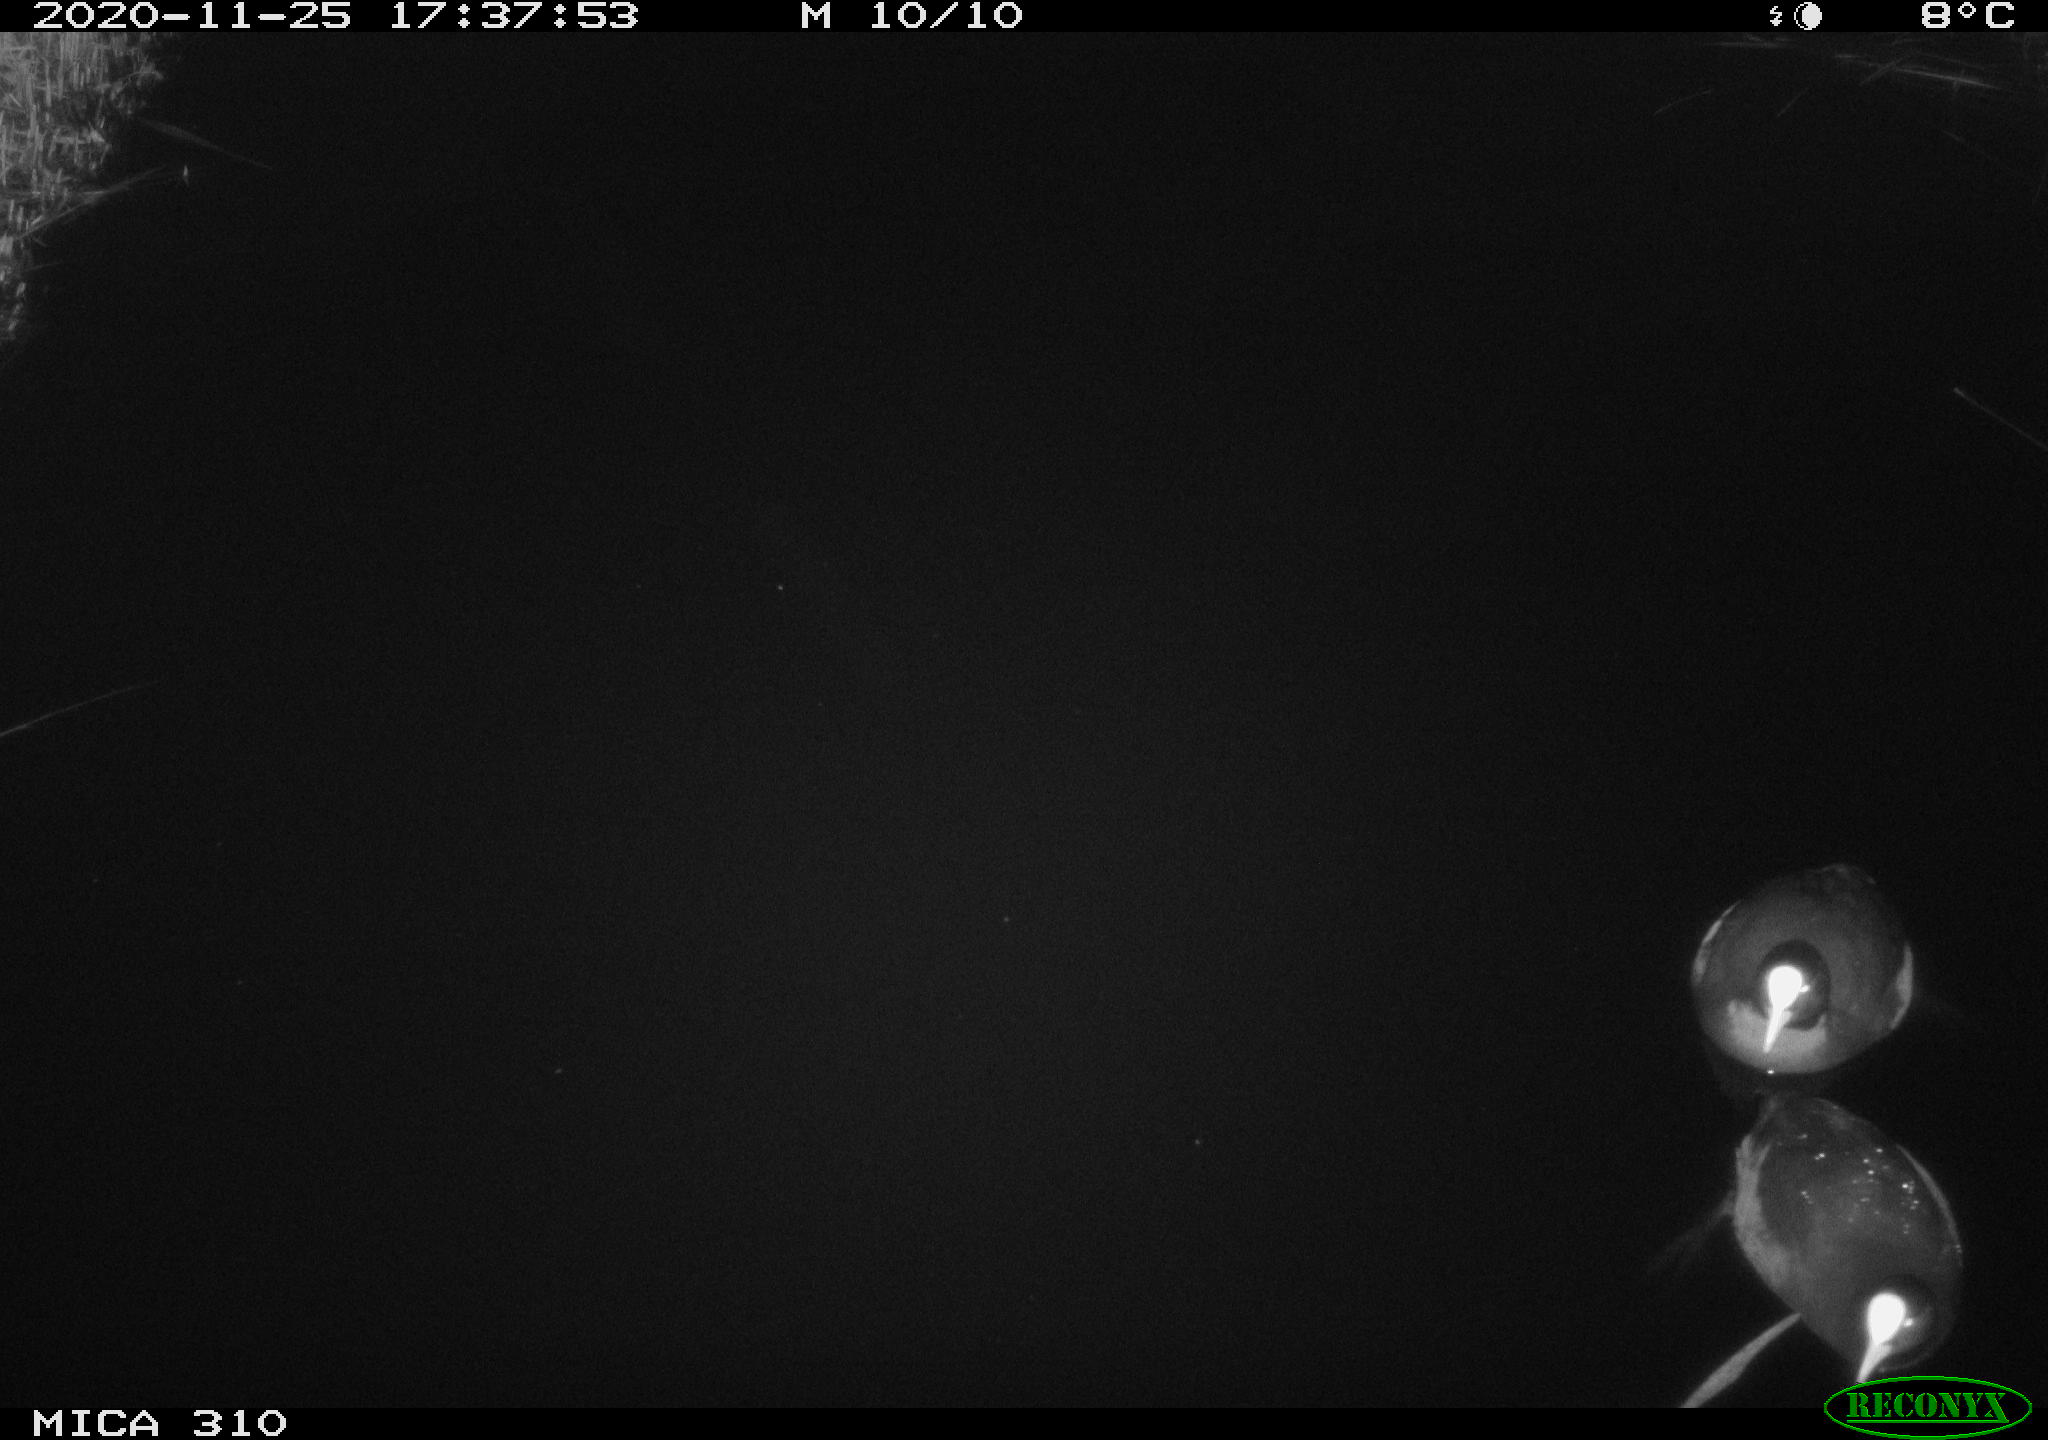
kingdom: Animalia
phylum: Chordata
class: Aves
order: Gruiformes
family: Rallidae
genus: Fulica
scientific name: Fulica atra
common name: Eurasian coot
